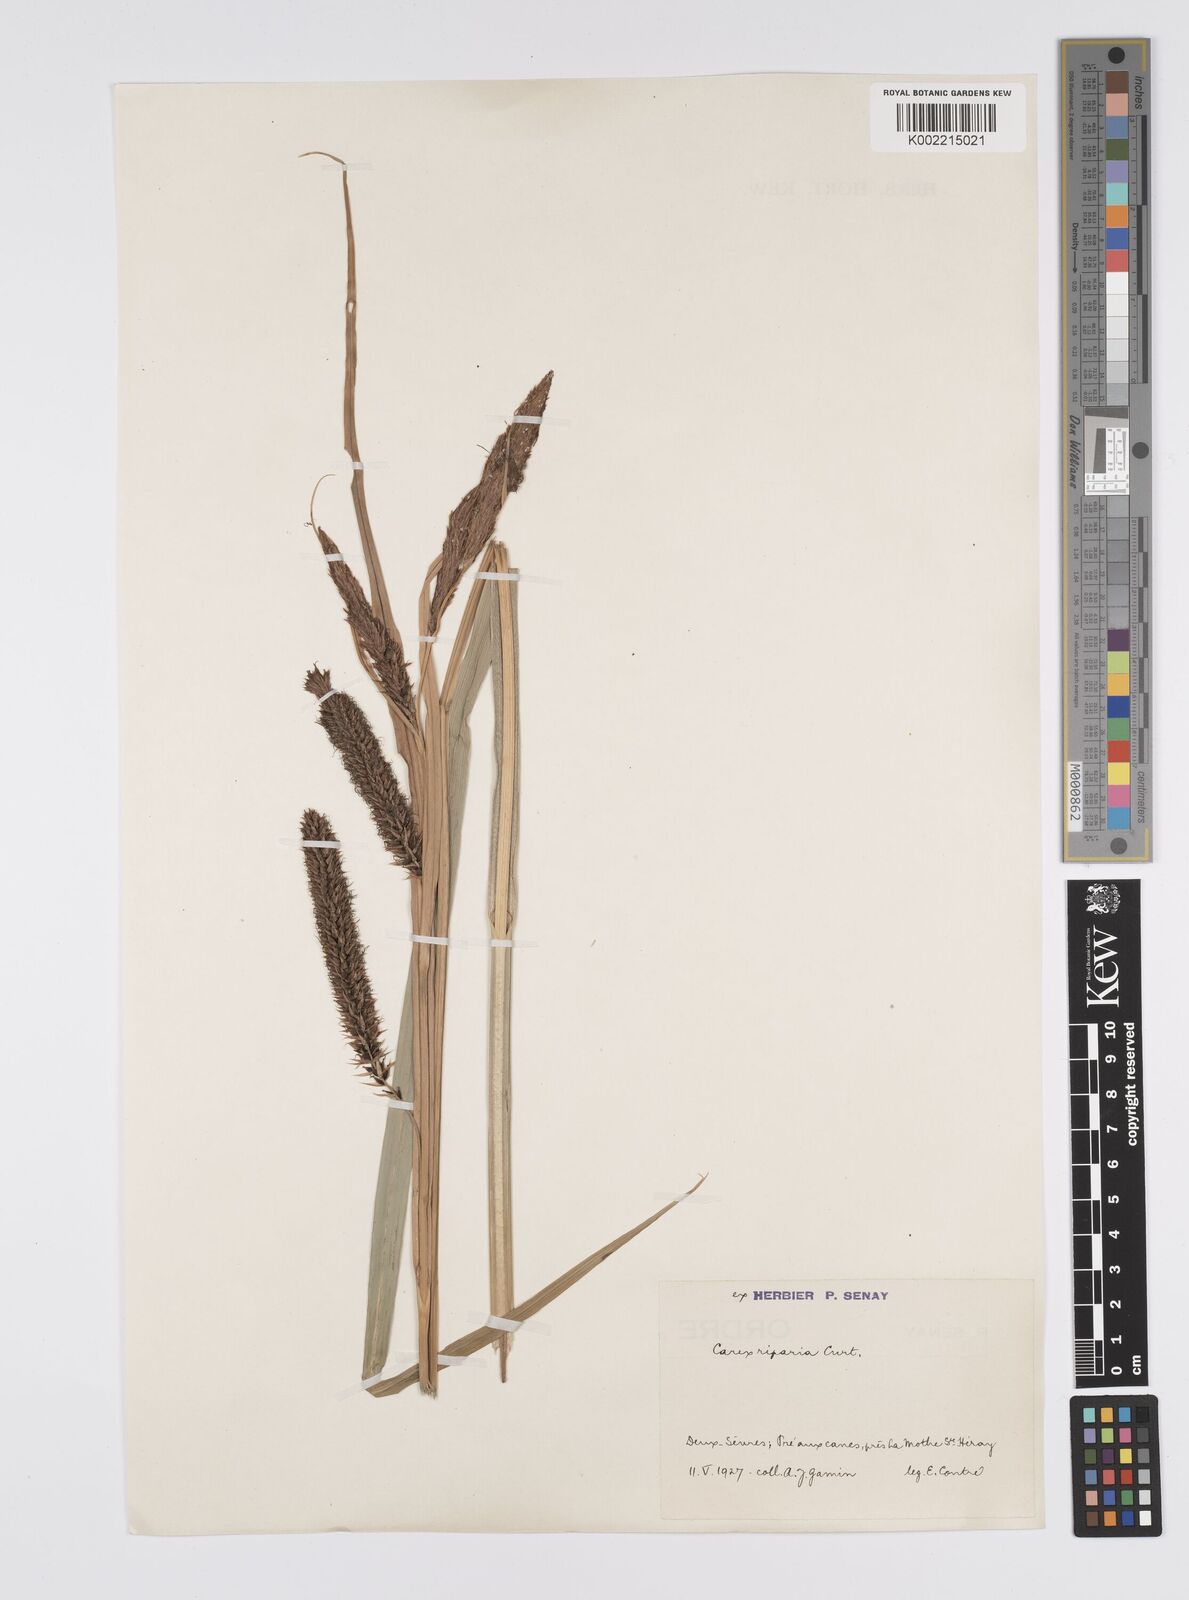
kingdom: Plantae
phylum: Tracheophyta
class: Liliopsida
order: Poales
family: Cyperaceae
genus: Carex
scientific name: Carex riparia
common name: Greater pond-sedge
